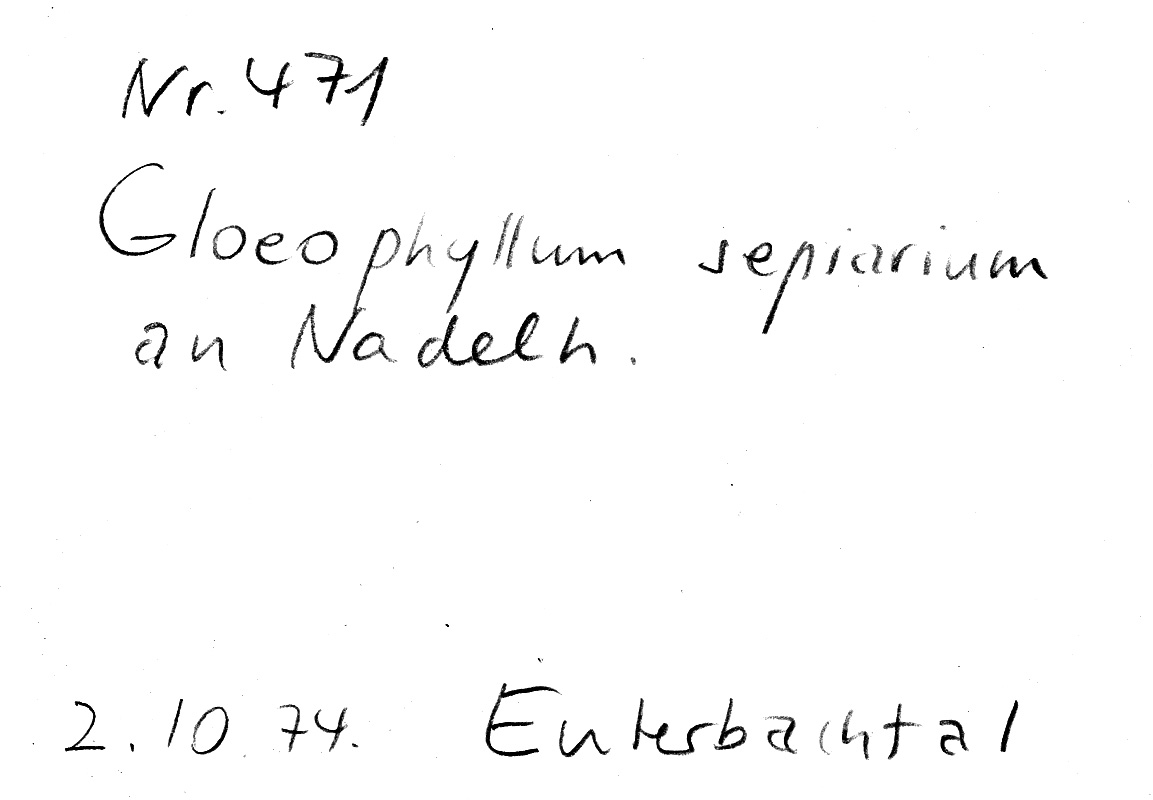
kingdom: Fungi
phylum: Basidiomycota
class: Agaricomycetes
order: Gloeophyllales
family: Gloeophyllaceae
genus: Gloeophyllum
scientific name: Gloeophyllum sepiarium
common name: Conifer mazegill
